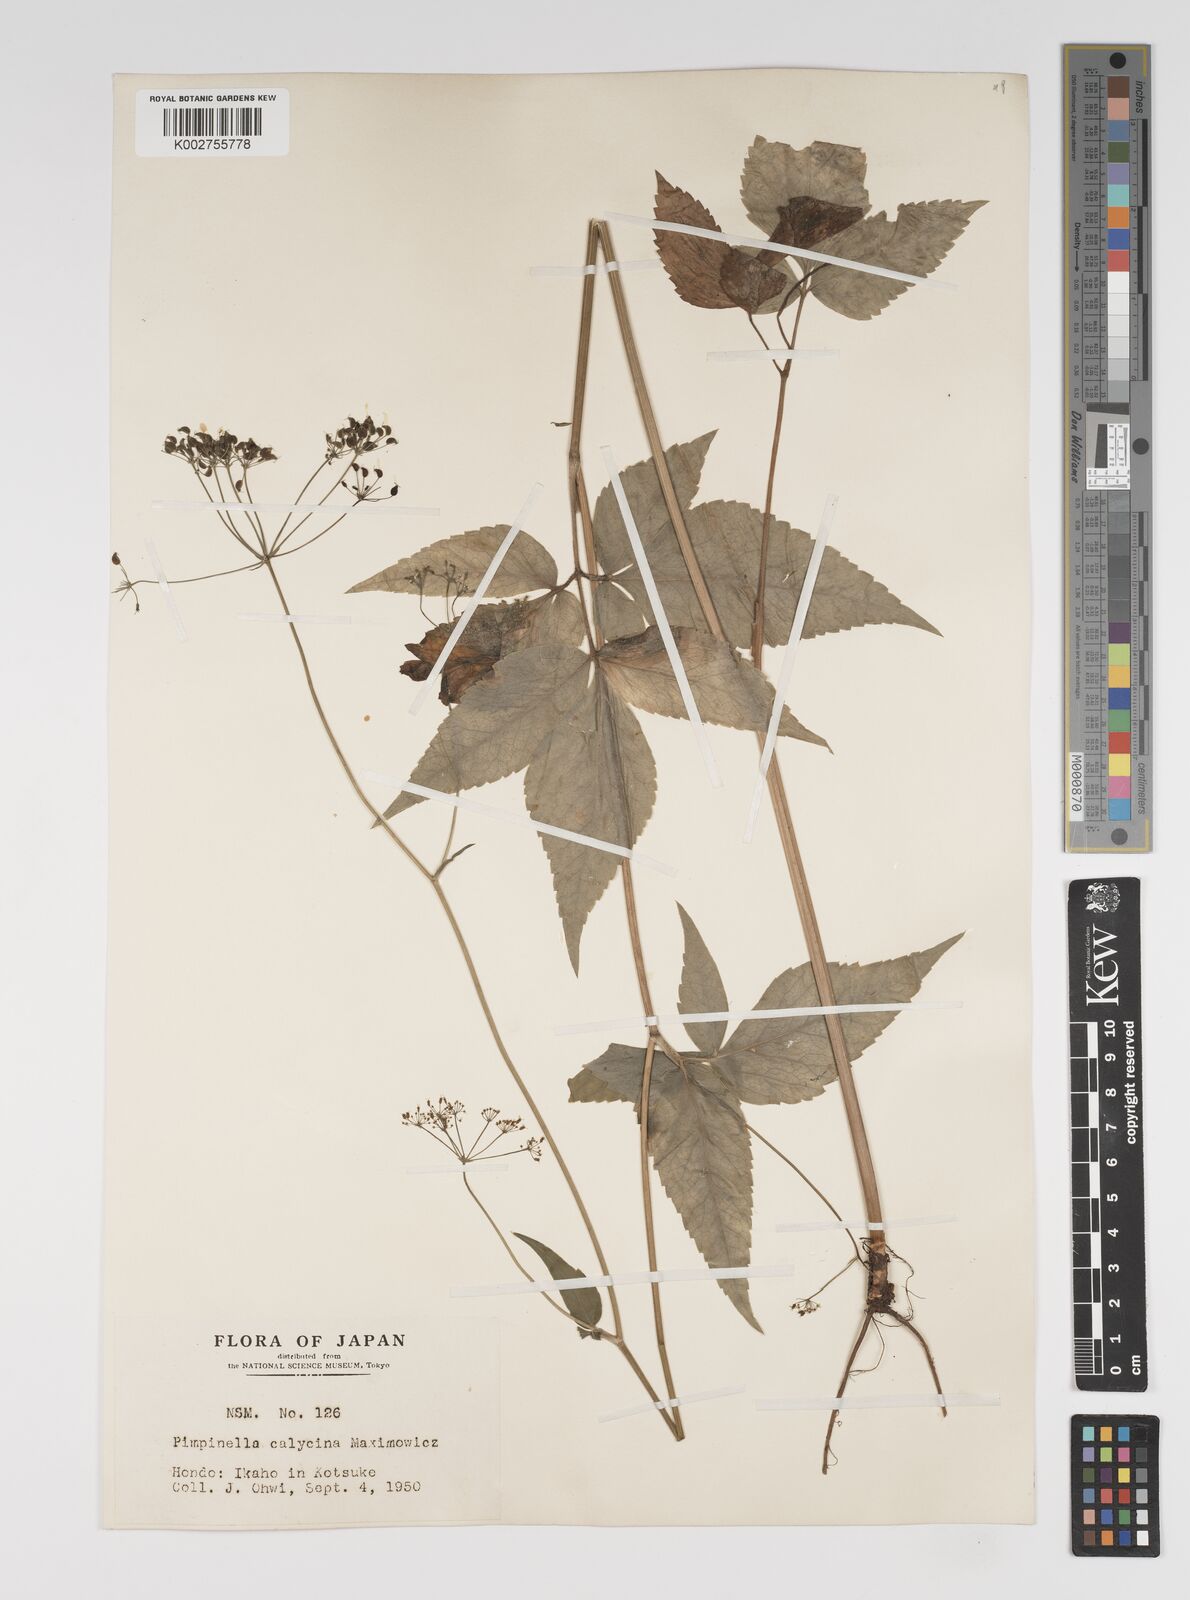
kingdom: Plantae
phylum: Tracheophyta
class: Magnoliopsida
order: Apiales
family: Apiaceae
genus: Spuriopimpinella
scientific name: Spuriopimpinella calycina
